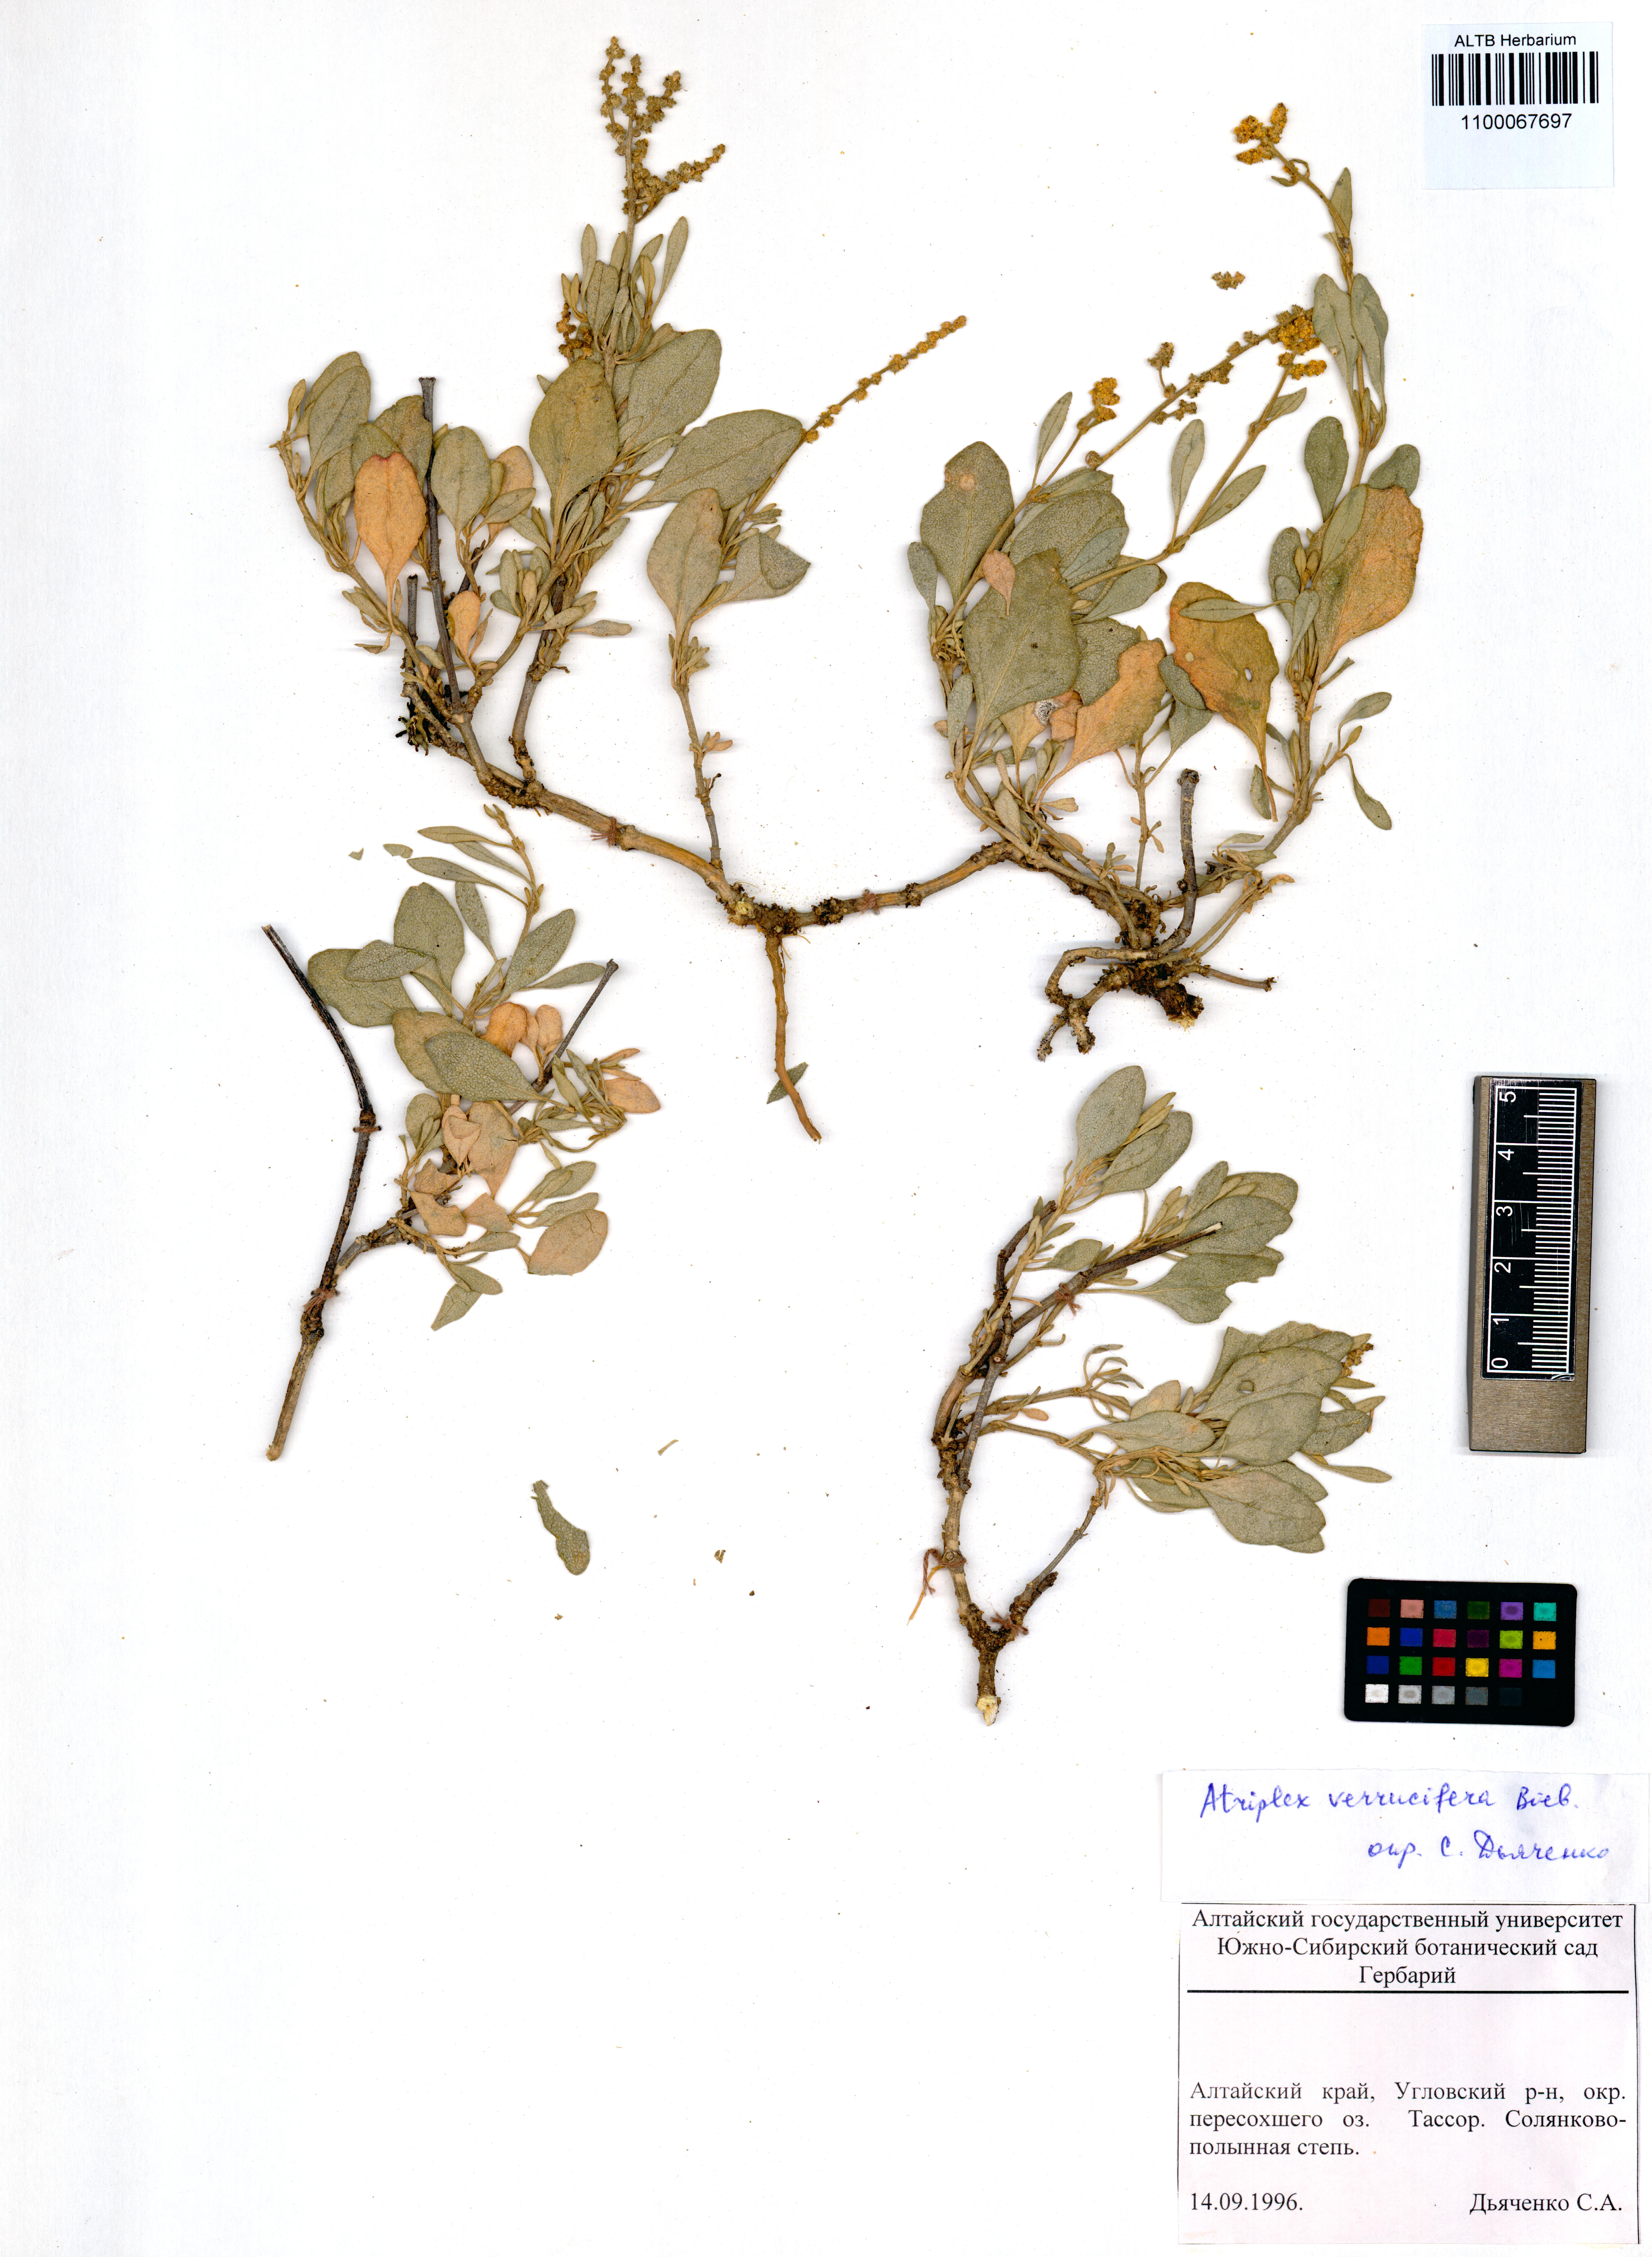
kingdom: Plantae
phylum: Tracheophyta
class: Magnoliopsida
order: Caryophyllales
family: Amaranthaceae
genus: Halimione
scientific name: Halimione verrucifera
